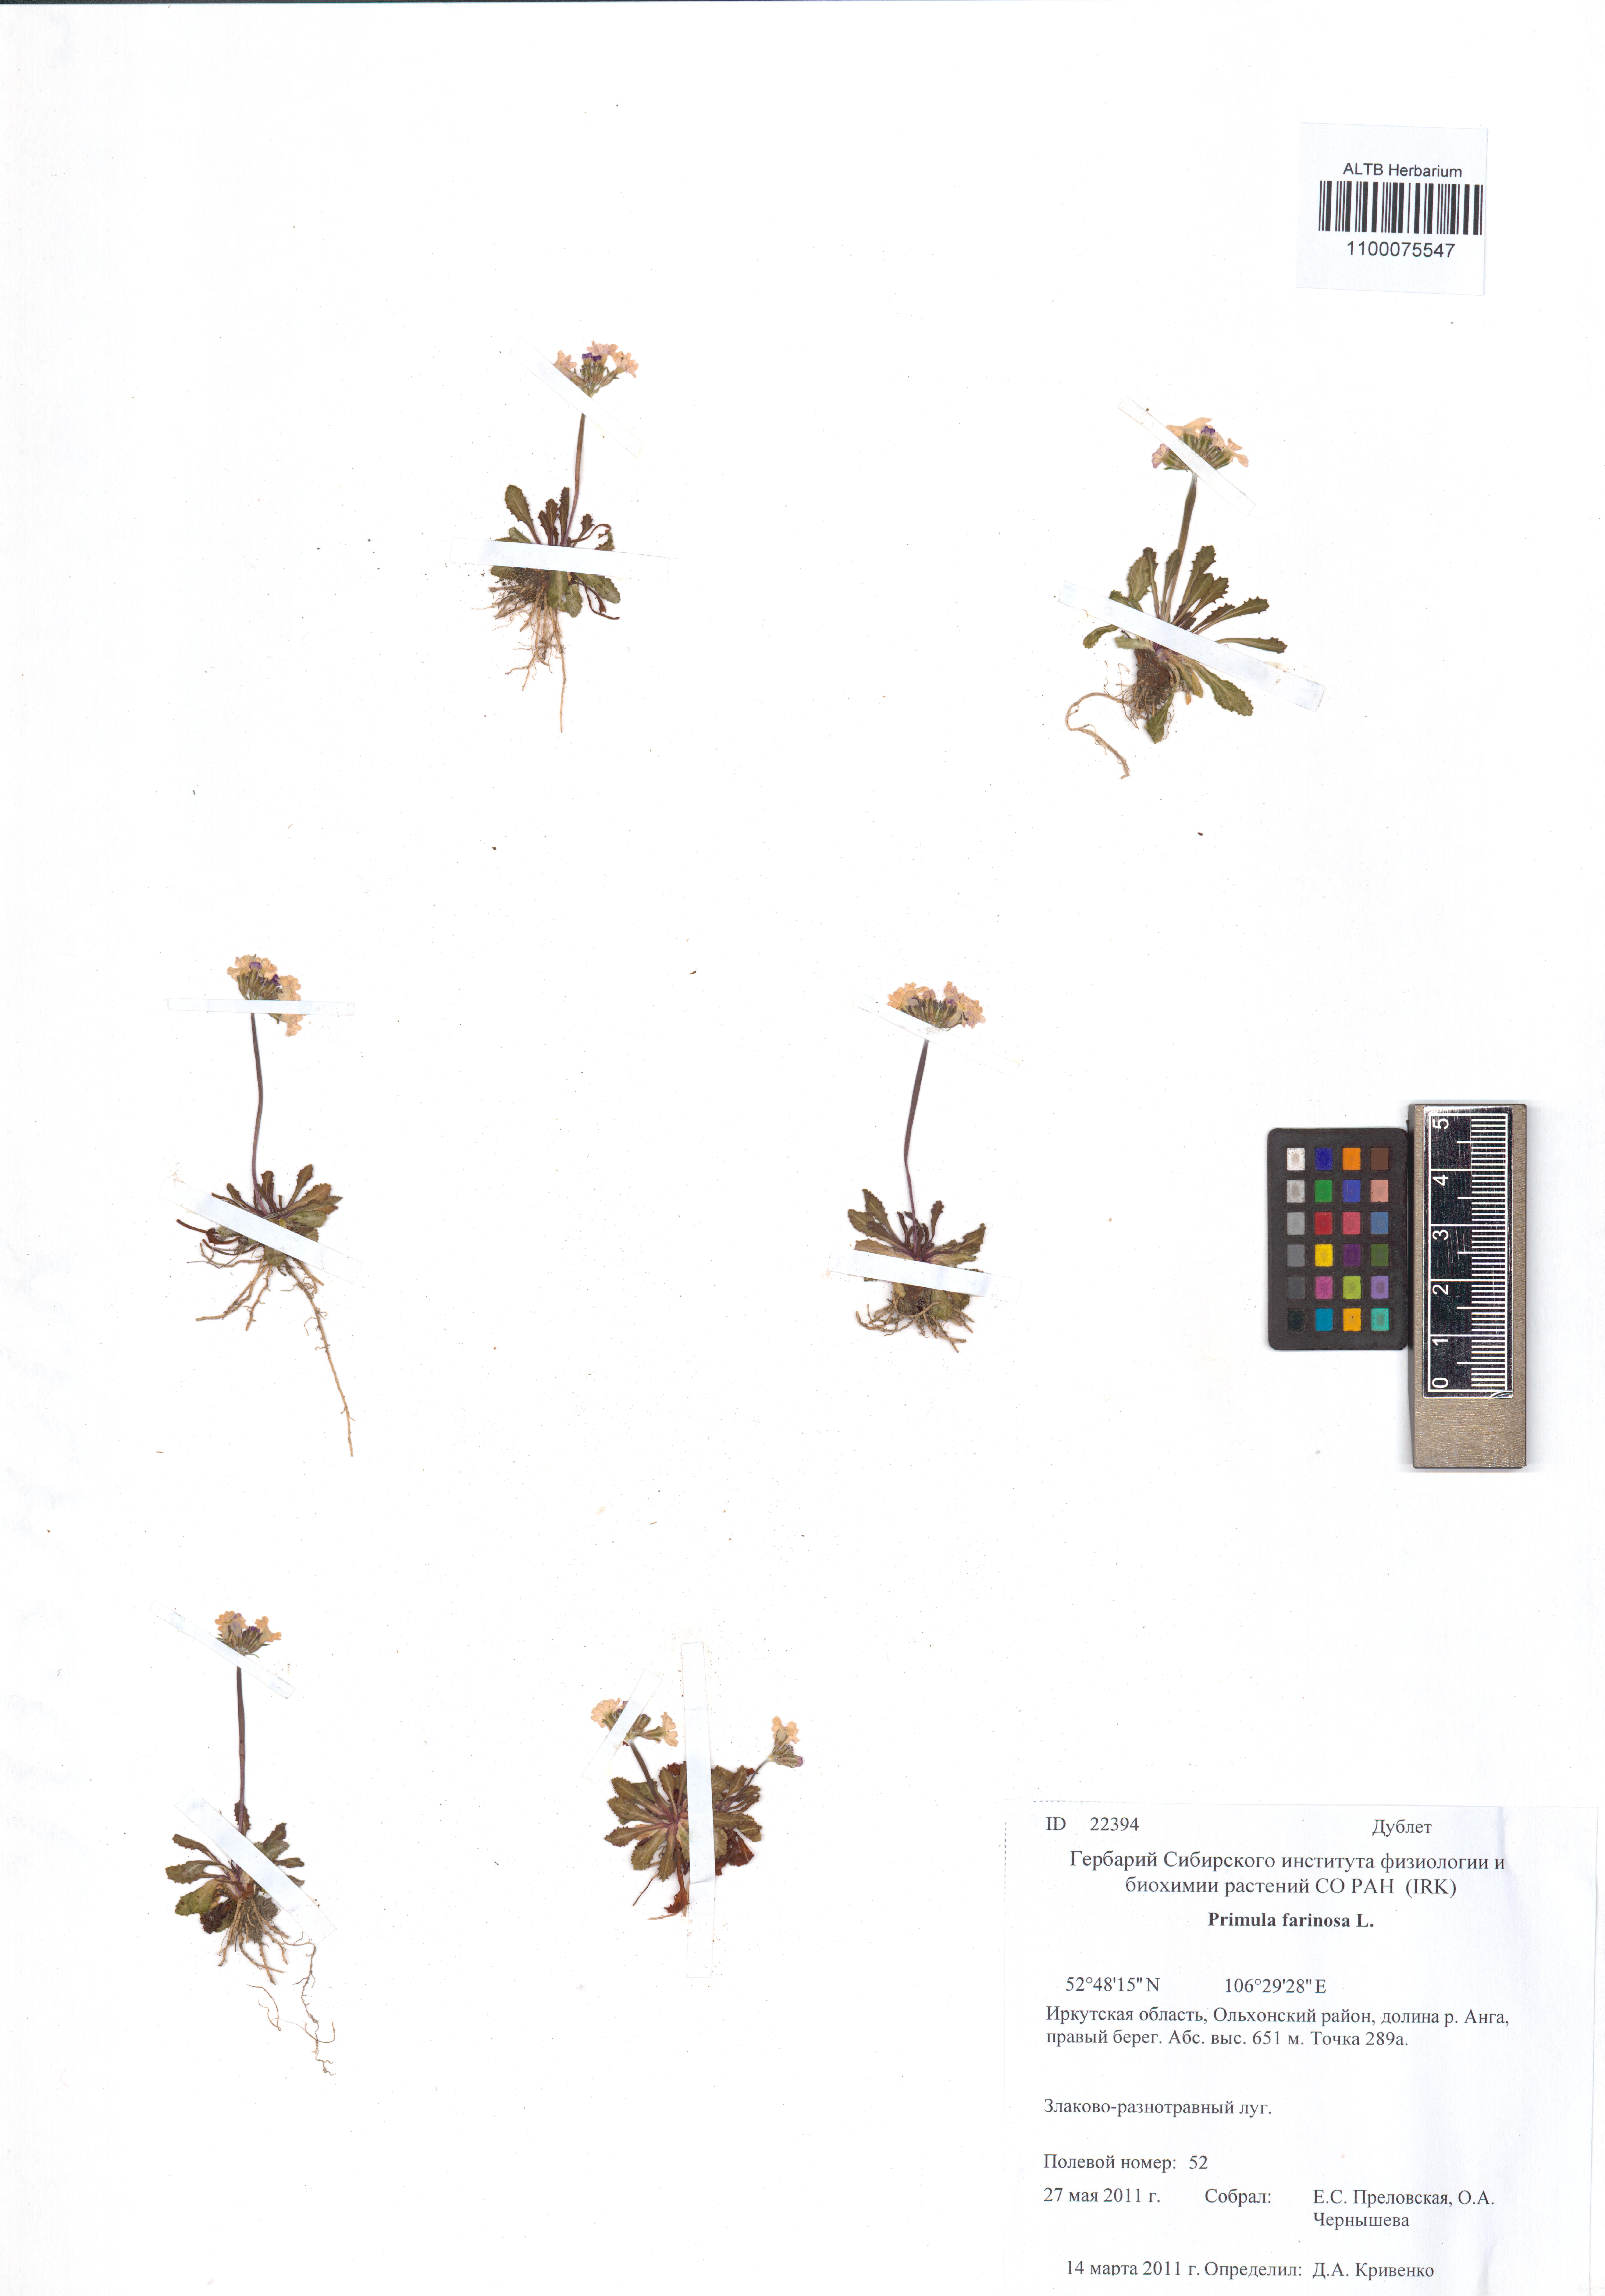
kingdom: Plantae
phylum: Tracheophyta
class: Magnoliopsida
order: Ericales
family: Primulaceae
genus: Primula
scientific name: Primula farinosa
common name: Bird's-eye primrose
